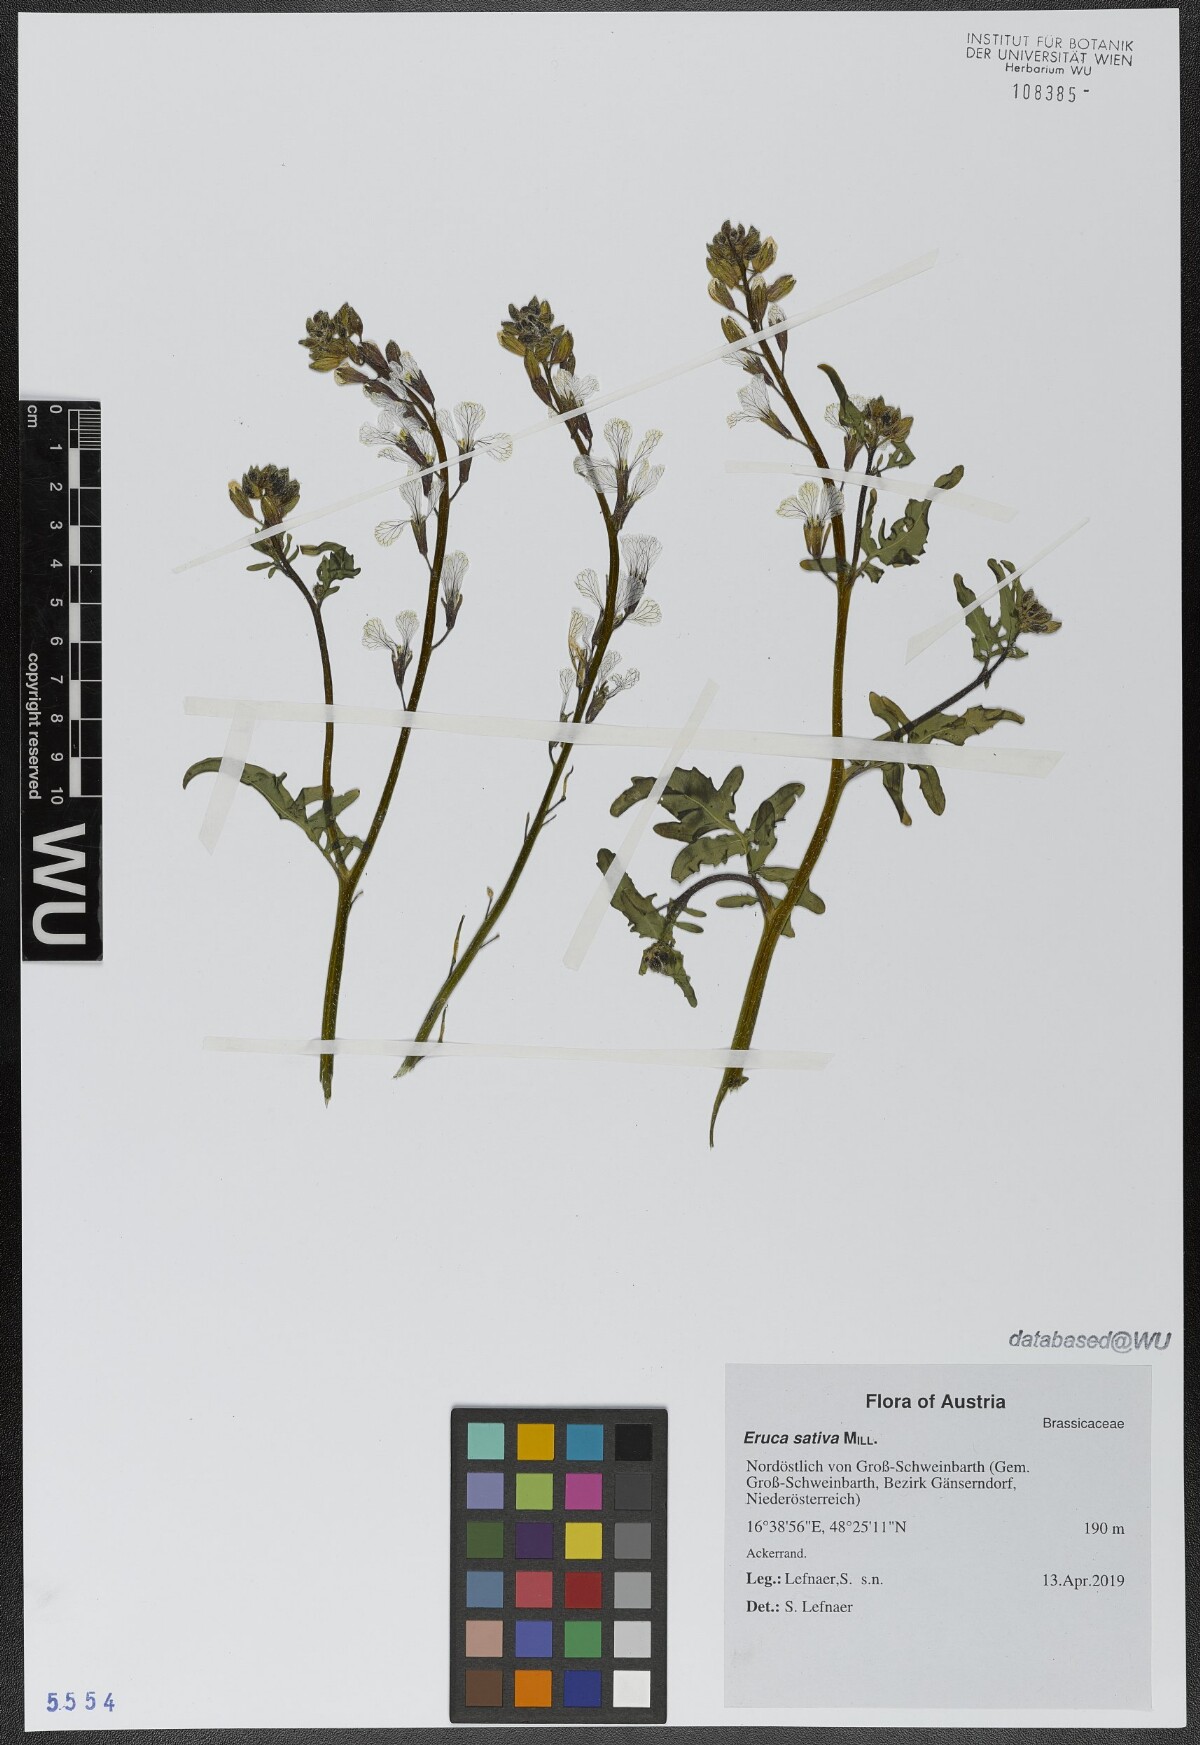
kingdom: Plantae
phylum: Tracheophyta
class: Magnoliopsida
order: Brassicales
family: Brassicaceae
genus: Eruca
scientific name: Eruca vesicaria
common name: Garden rocket
